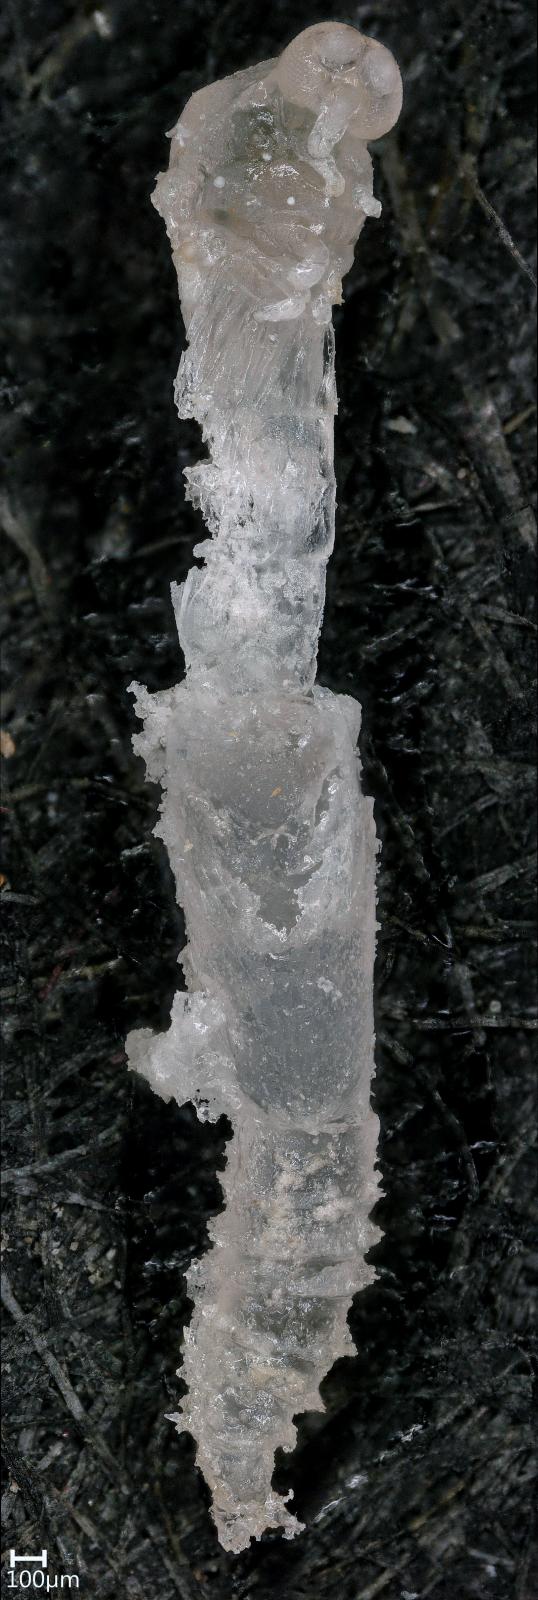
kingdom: Animalia
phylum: Arthropoda
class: Insecta
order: Diptera
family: Ceratopogonidae
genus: Dasyhelea
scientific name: Dasyhelea australia
